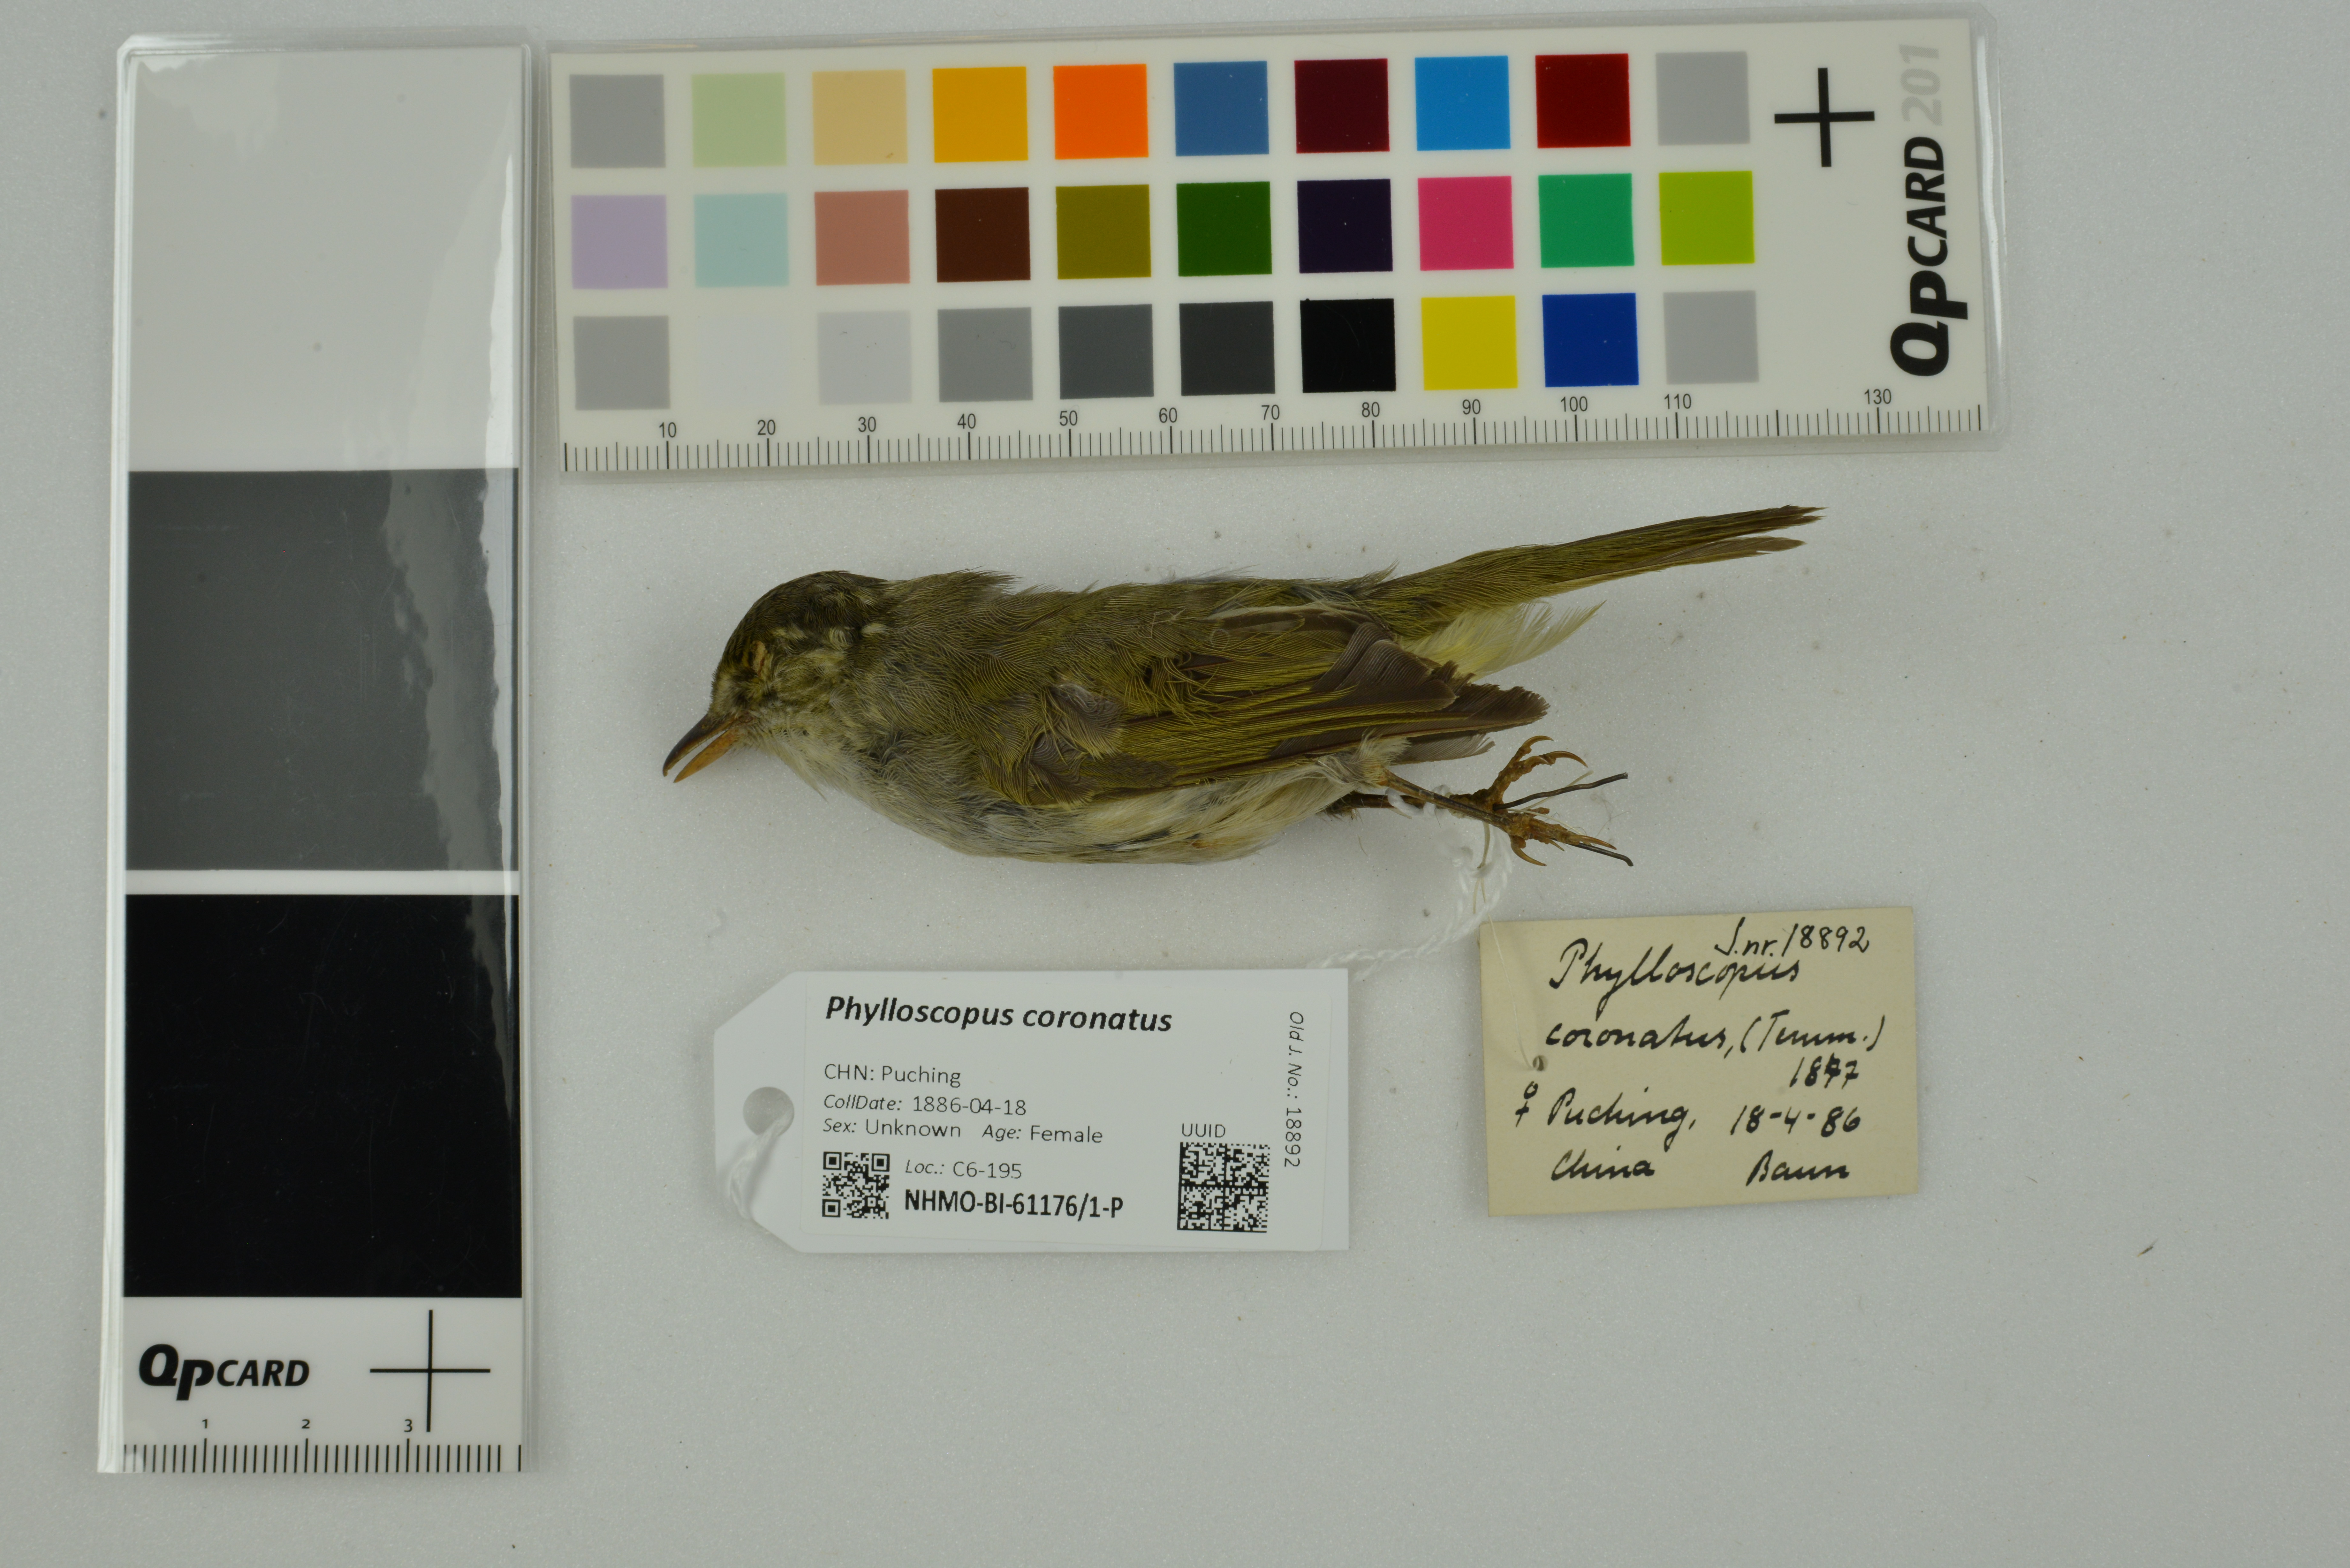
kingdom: Animalia
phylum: Chordata
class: Aves
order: Passeriformes
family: Phylloscopidae
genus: Phylloscopus
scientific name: Phylloscopus coronatus
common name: Eastern crowned warbler
